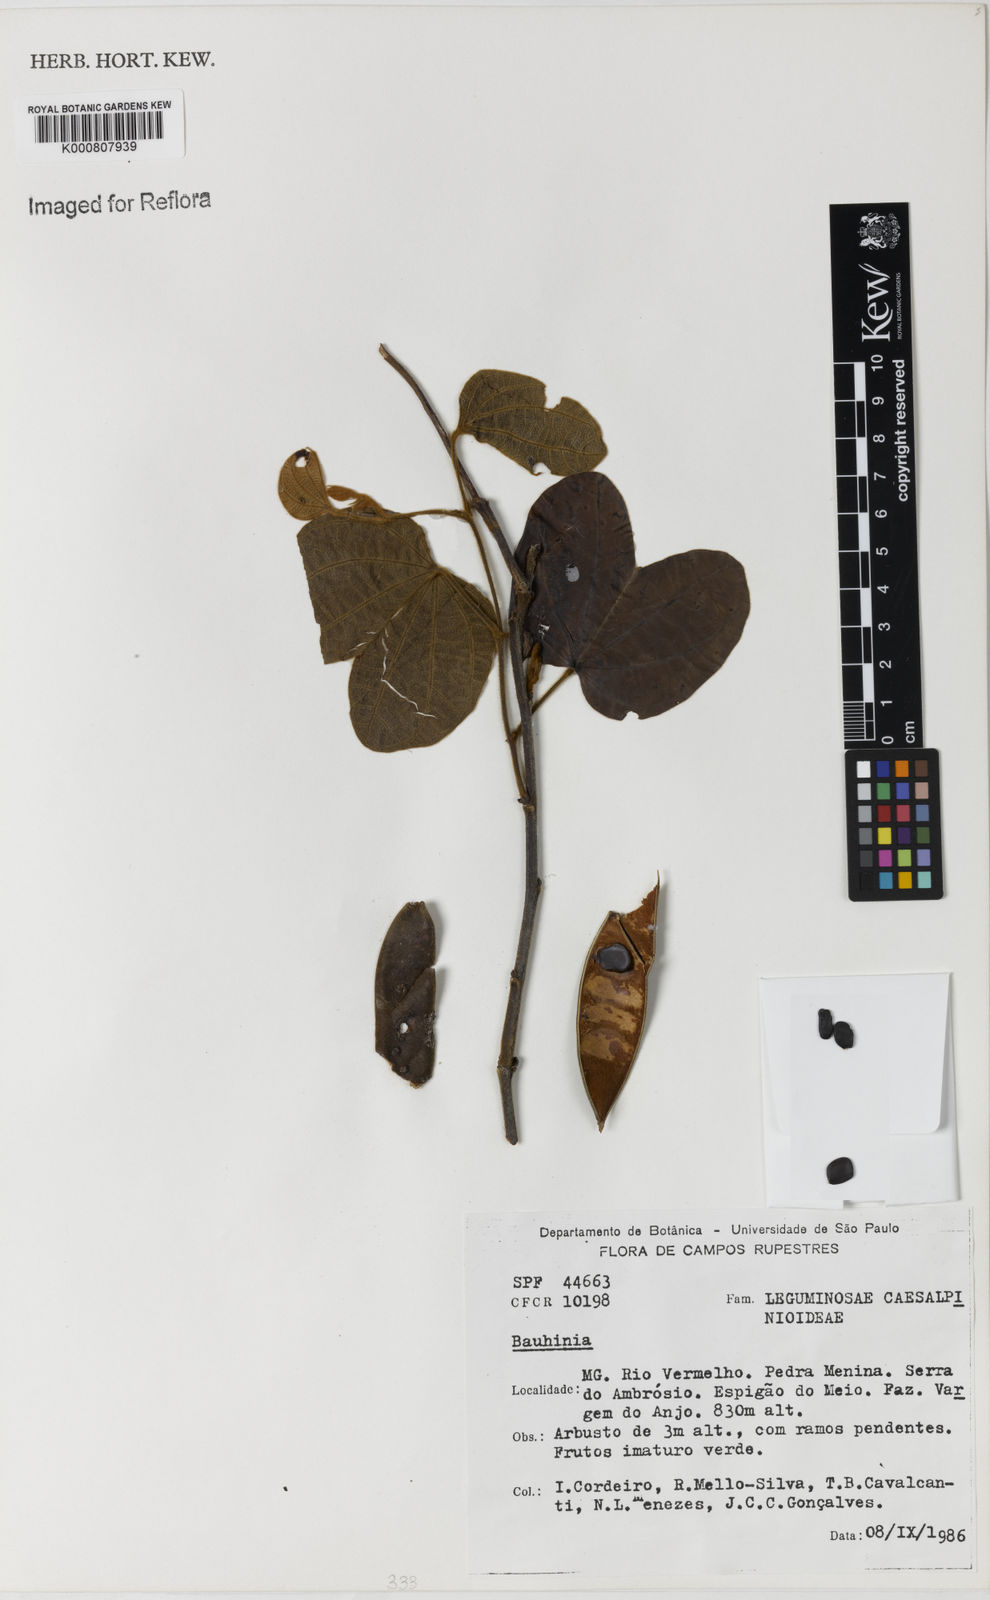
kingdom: Plantae
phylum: Tracheophyta
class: Magnoliopsida
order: Fabales
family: Fabaceae
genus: Bauhinia
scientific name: Bauhinia
